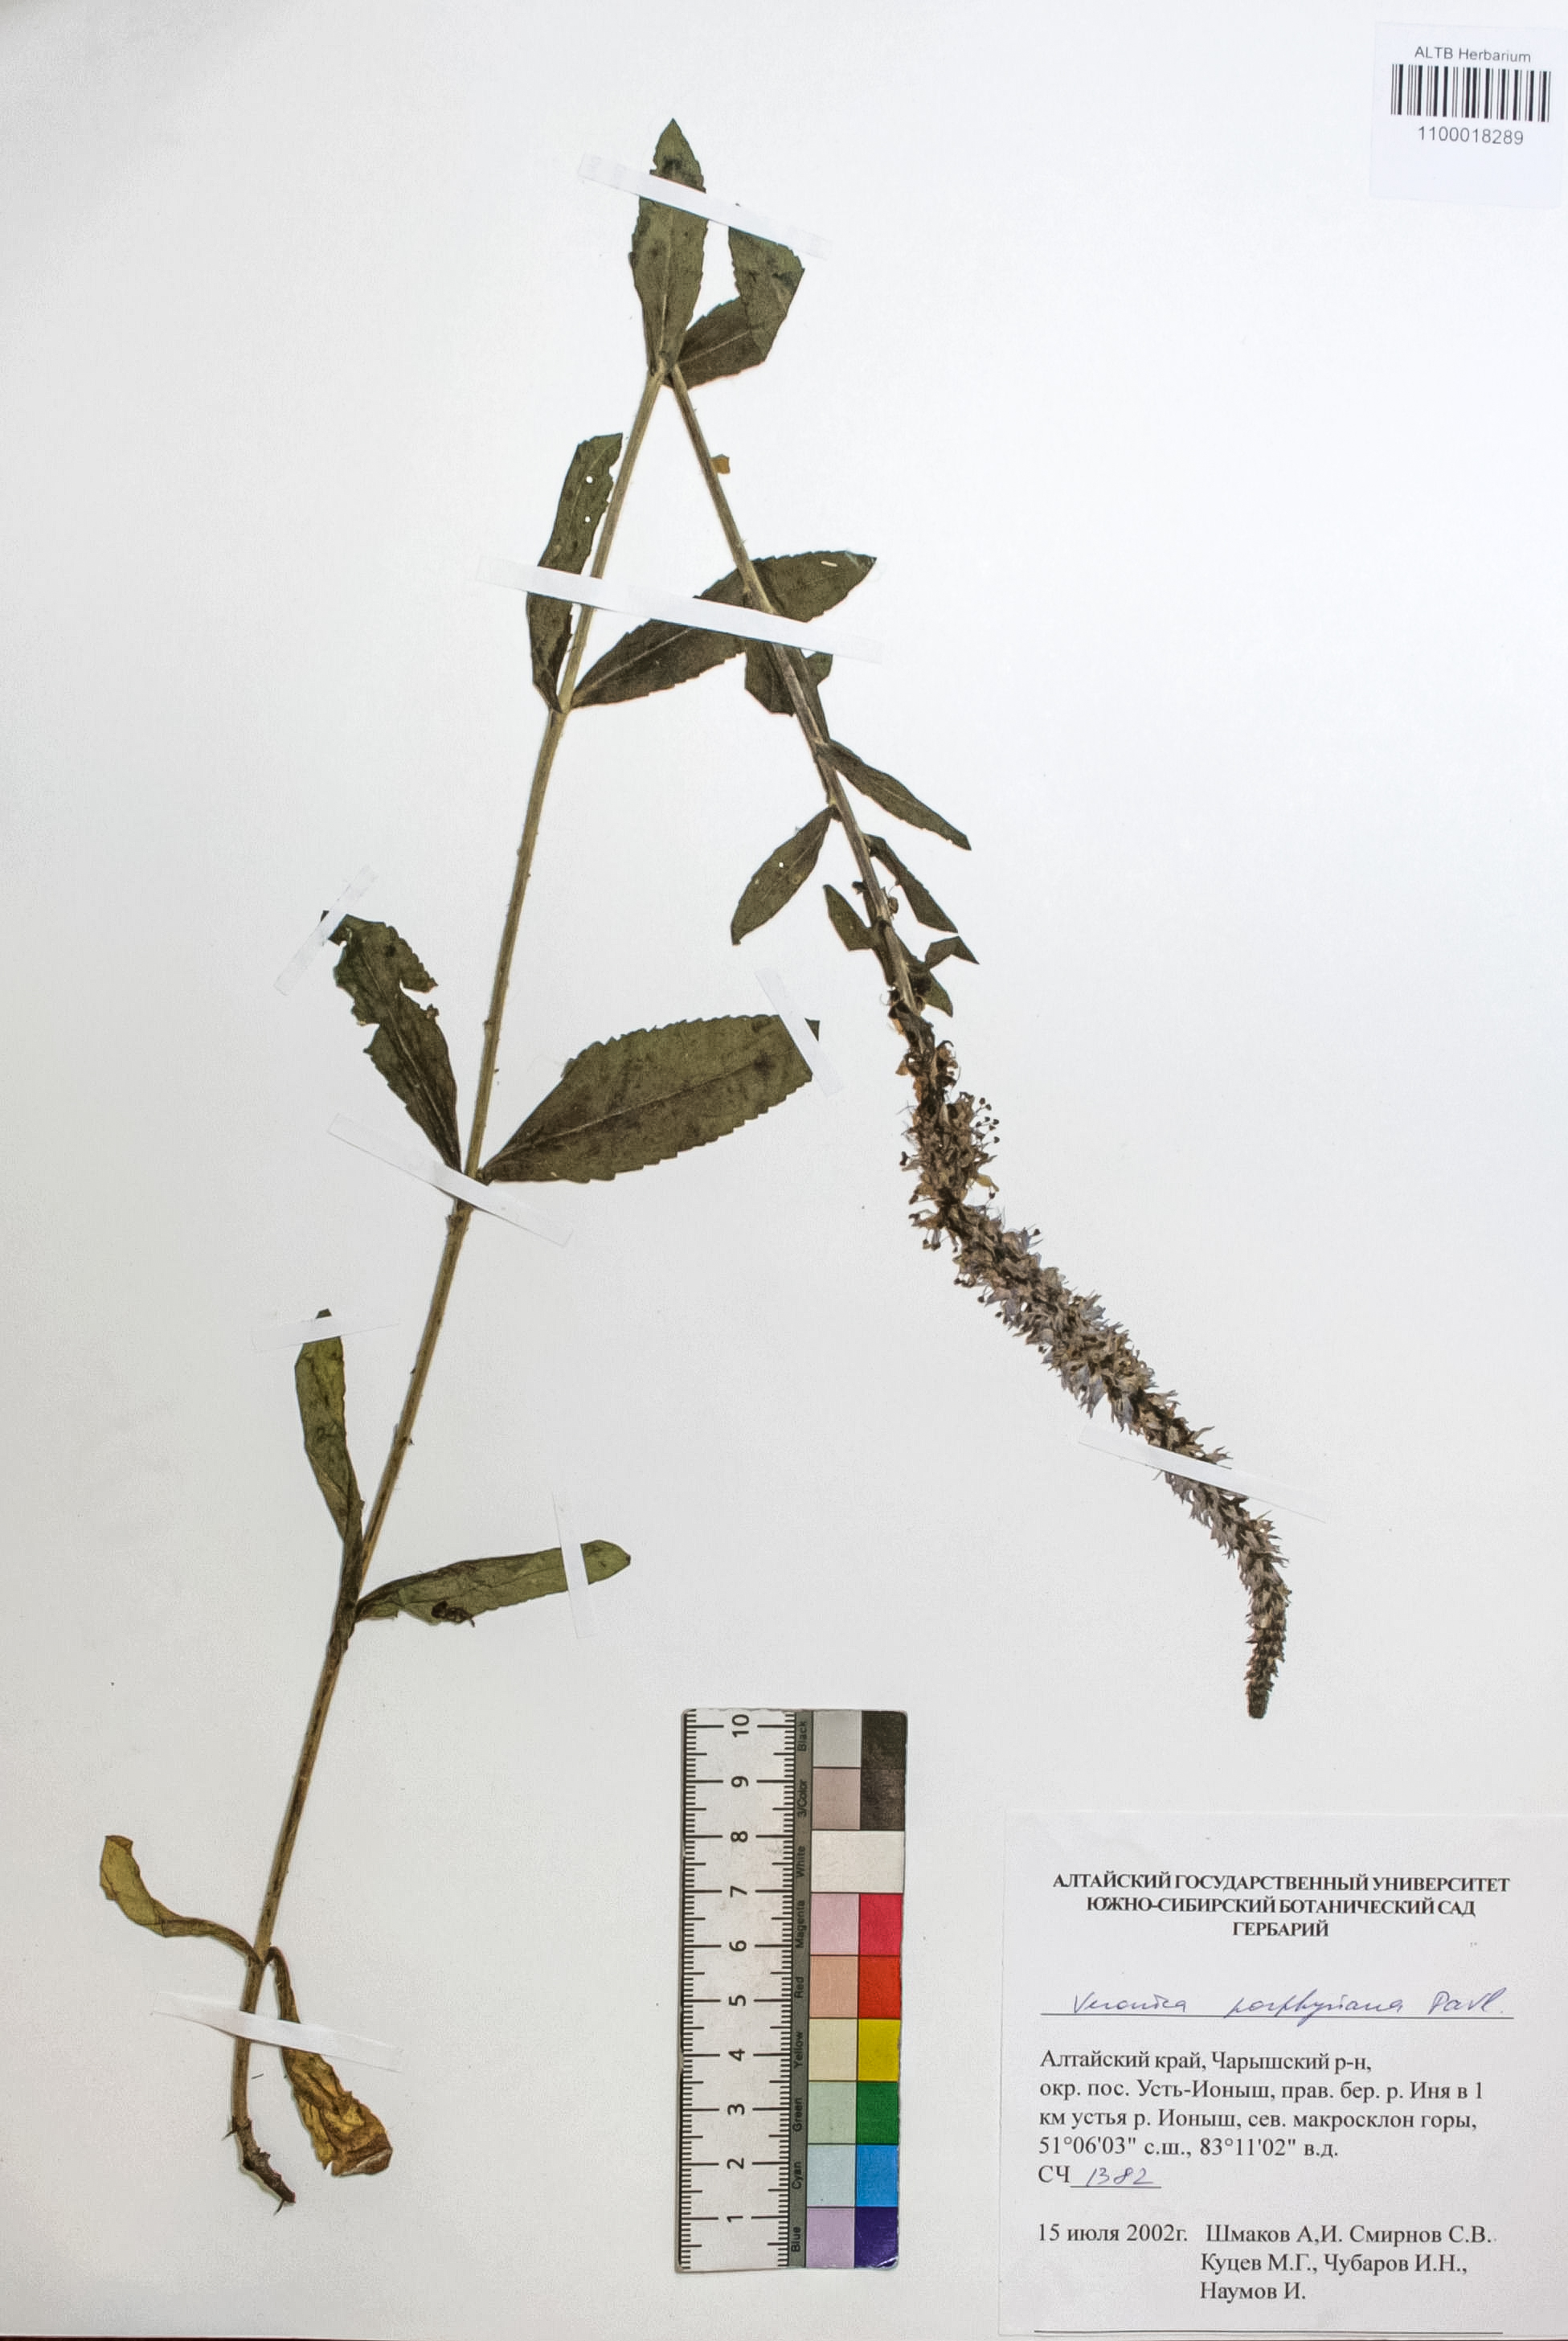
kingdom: Plantae
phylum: Tracheophyta
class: Magnoliopsida
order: Lamiales
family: Plantaginaceae
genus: Veronica
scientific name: Veronica porphyriana
